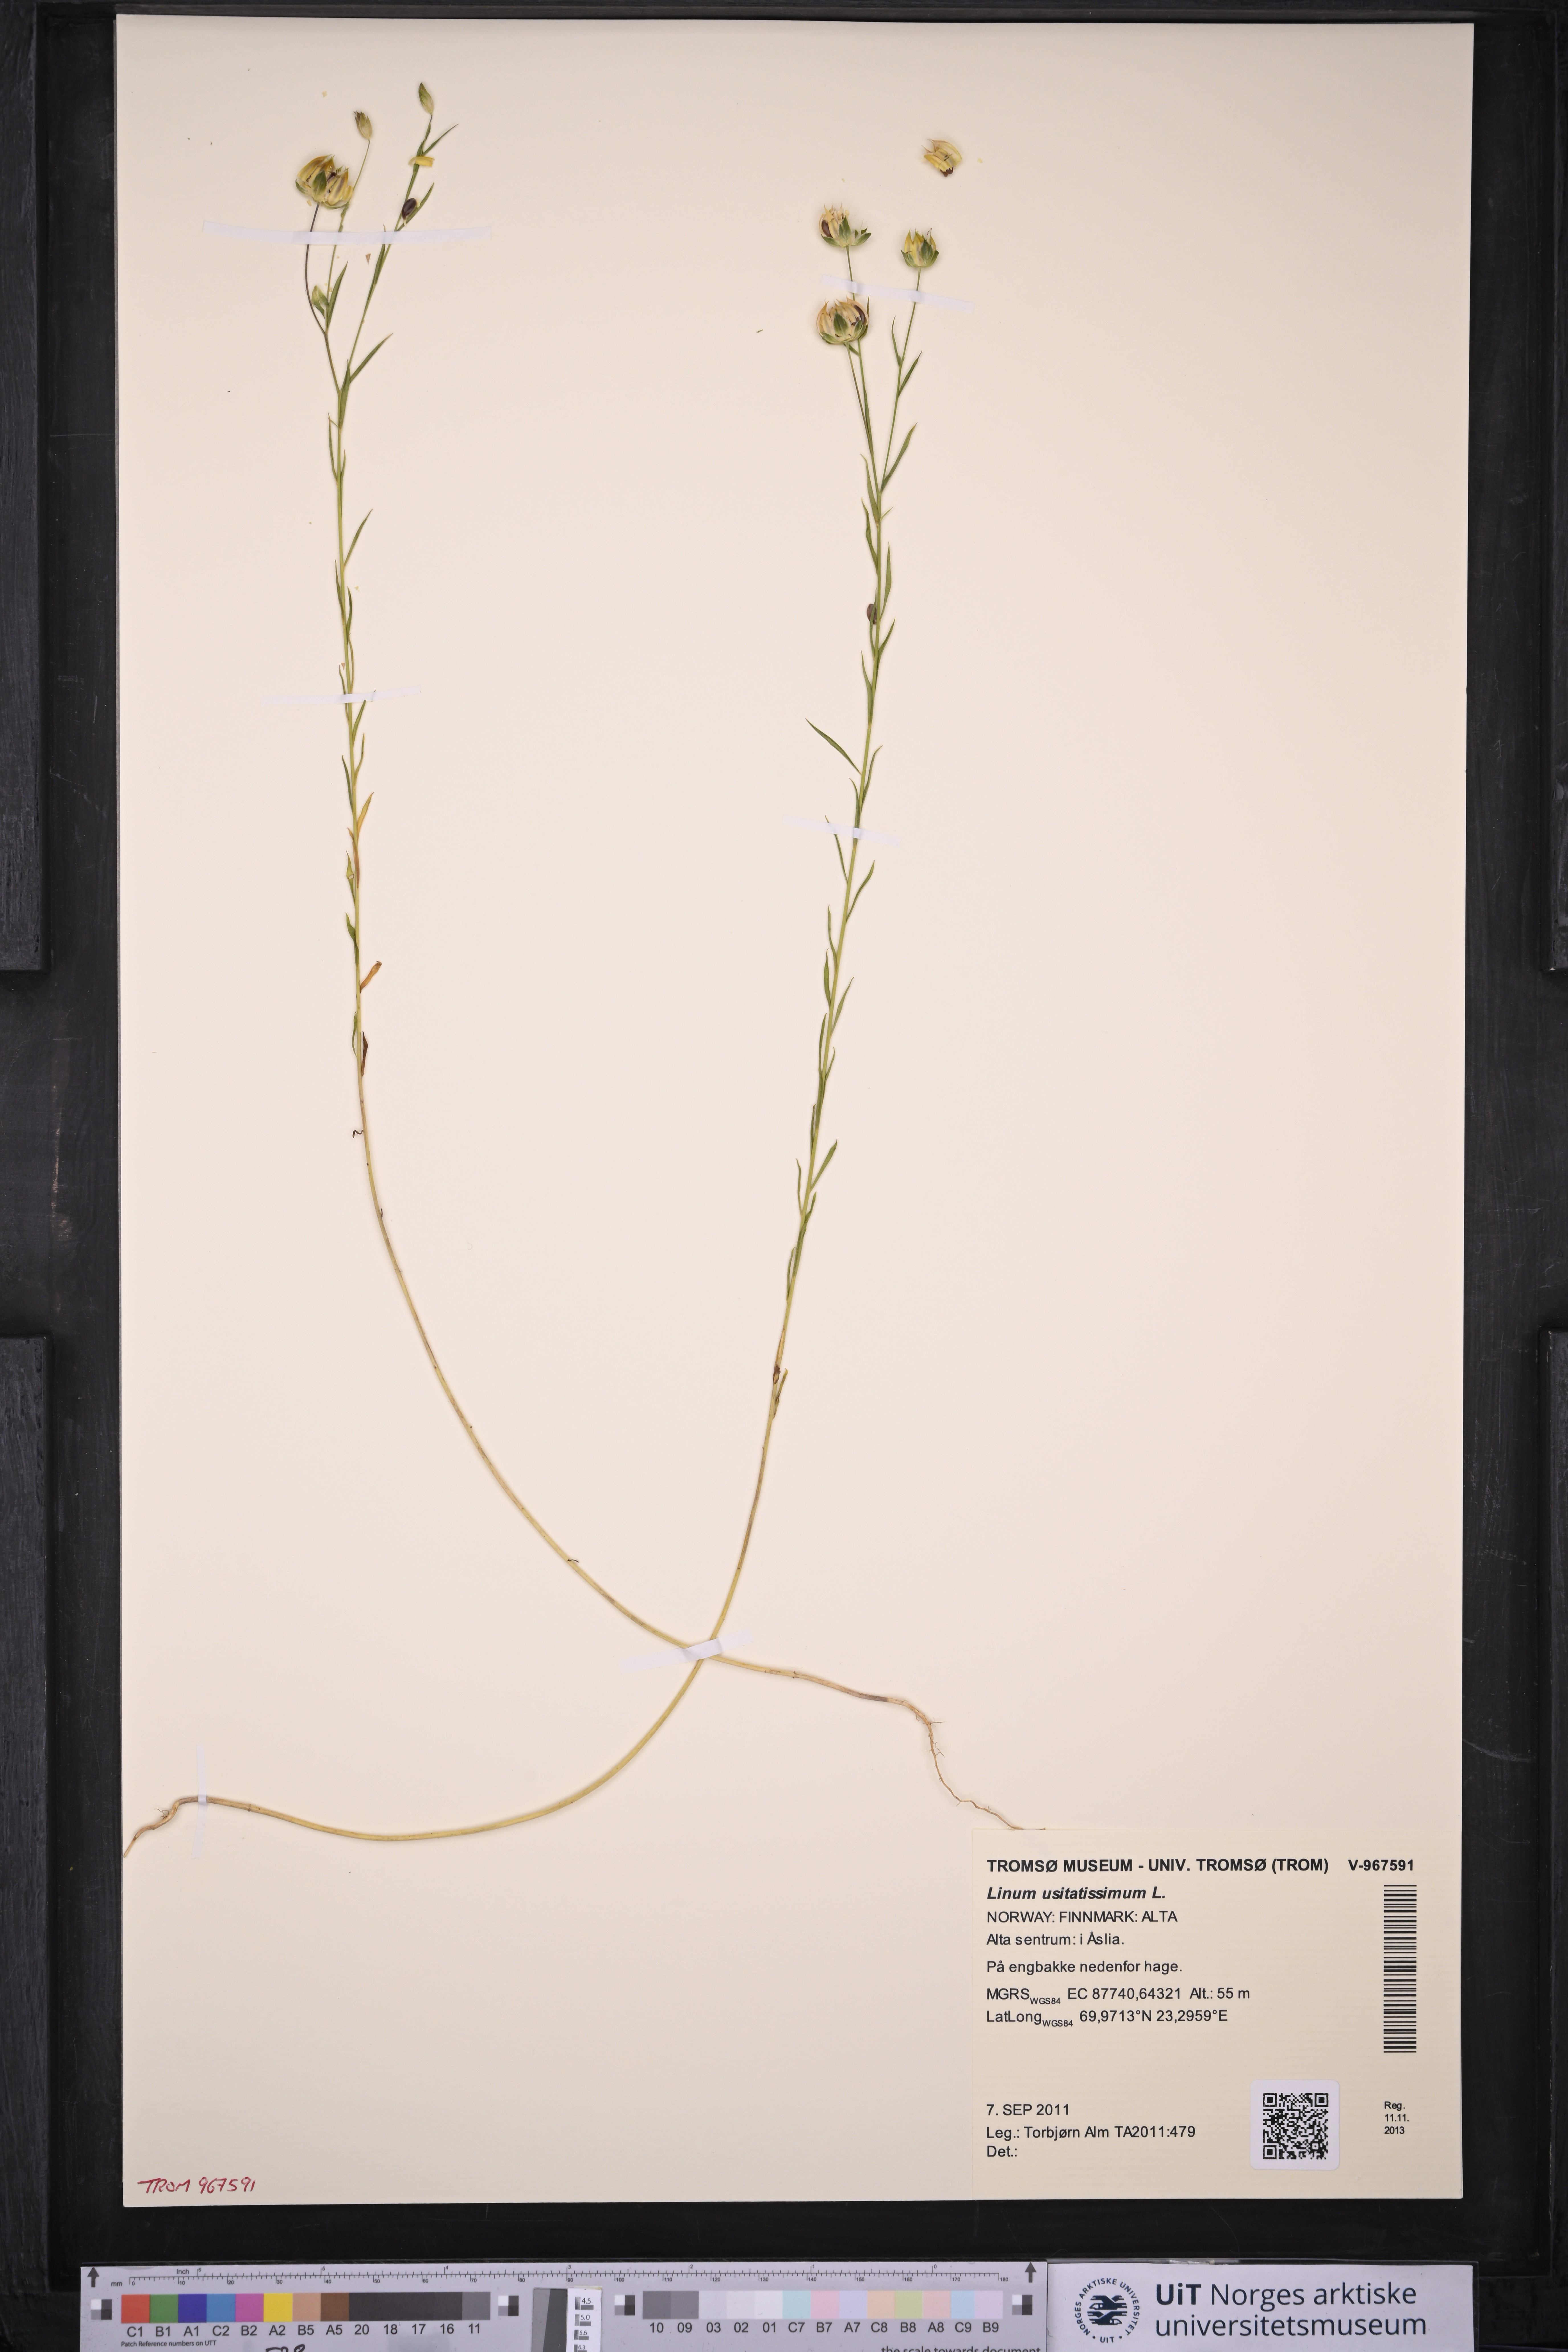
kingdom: Plantae
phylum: Tracheophyta
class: Magnoliopsida
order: Malpighiales
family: Linaceae
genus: Linum
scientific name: Linum usitatissimum
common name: Flax
